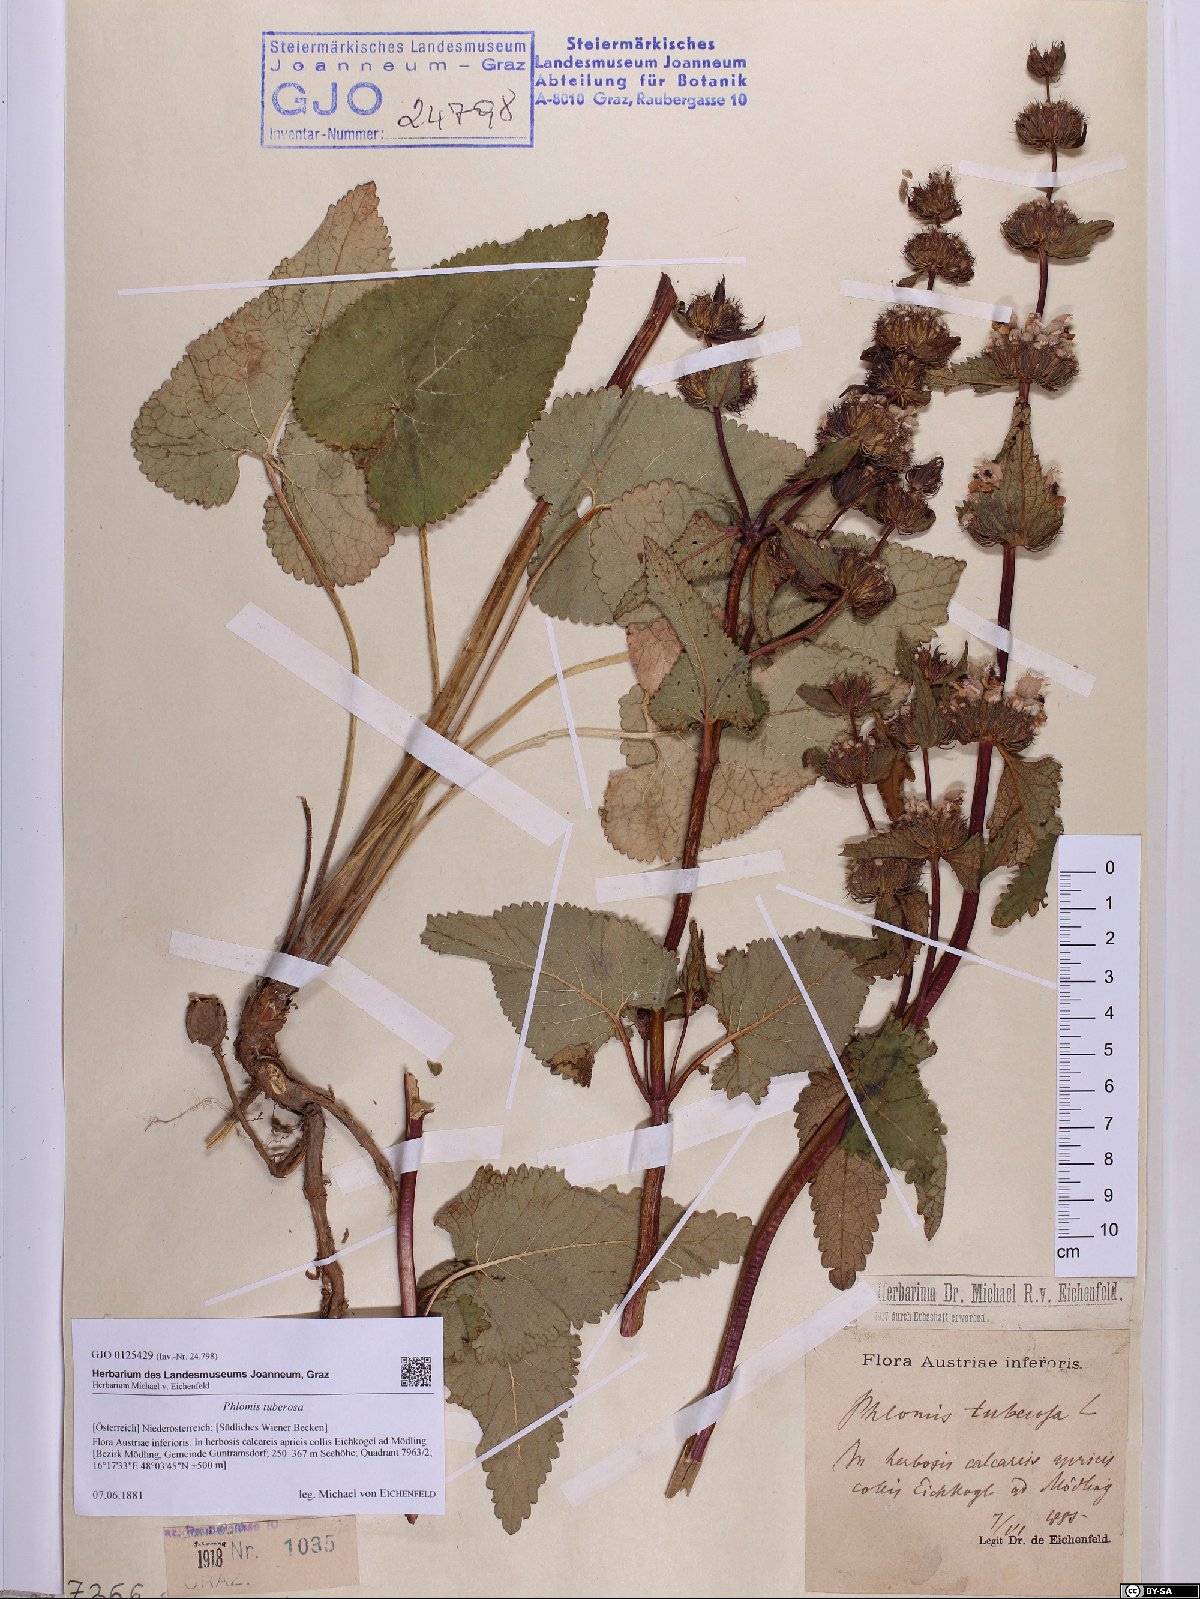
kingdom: Plantae
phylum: Tracheophyta
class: Magnoliopsida
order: Lamiales
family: Lamiaceae
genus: Phlomoides
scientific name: Phlomoides tuberosa
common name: Tuberous jerusalem sage
